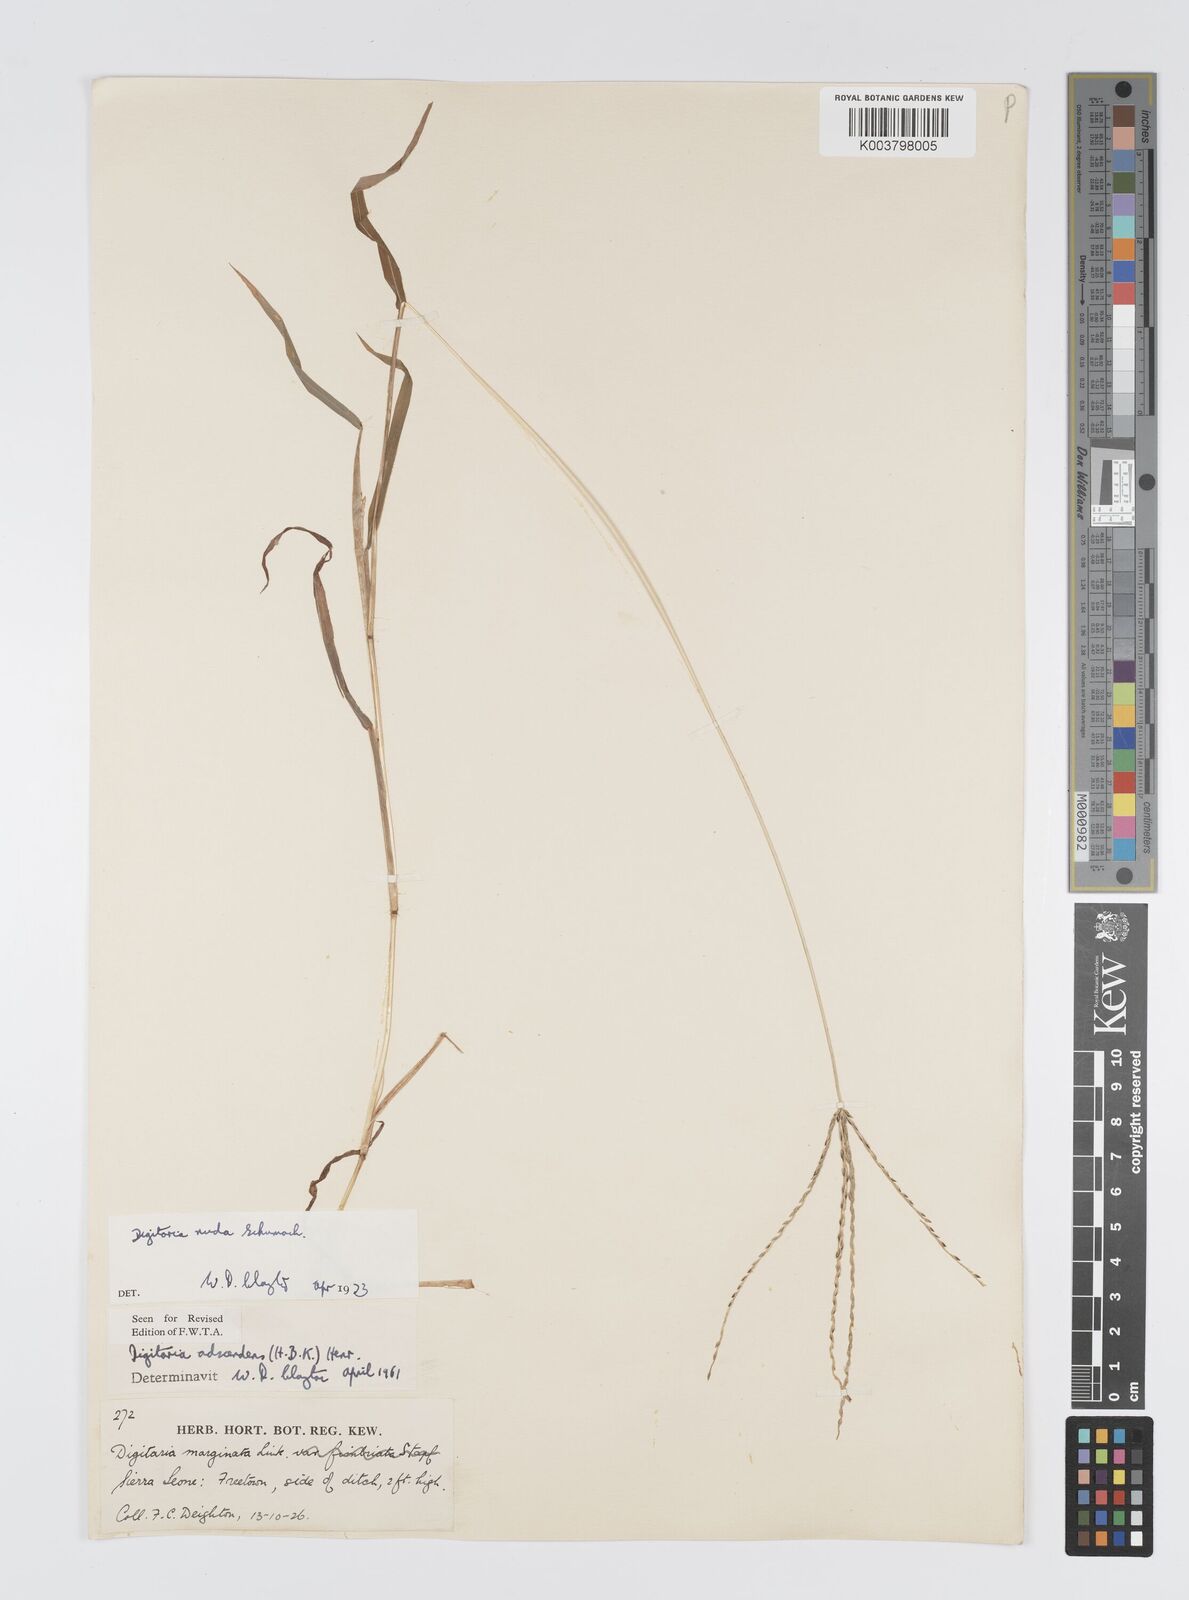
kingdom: Plantae
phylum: Tracheophyta
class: Liliopsida
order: Poales
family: Poaceae
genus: Digitaria
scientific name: Digitaria nuda
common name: Naked crabgrass
